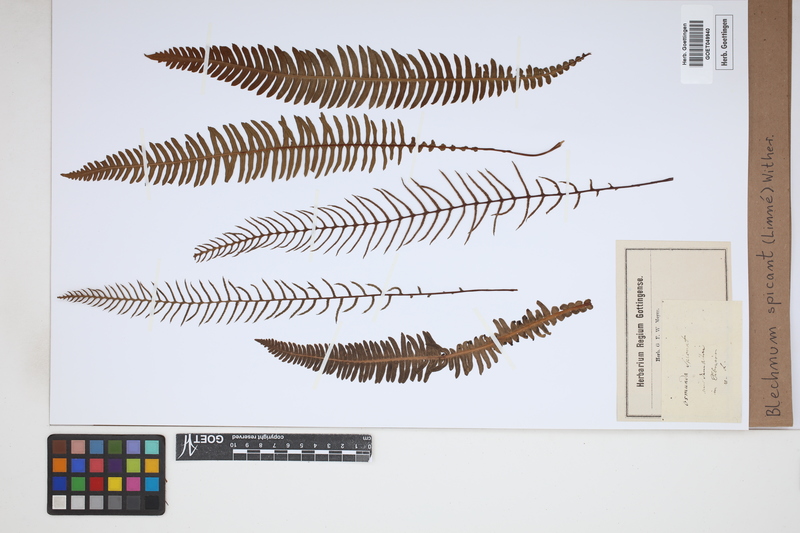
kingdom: Plantae
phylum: Tracheophyta
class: Polypodiopsida
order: Polypodiales
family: Blechnaceae
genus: Struthiopteris
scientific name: Struthiopteris spicant
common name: Deer fern
